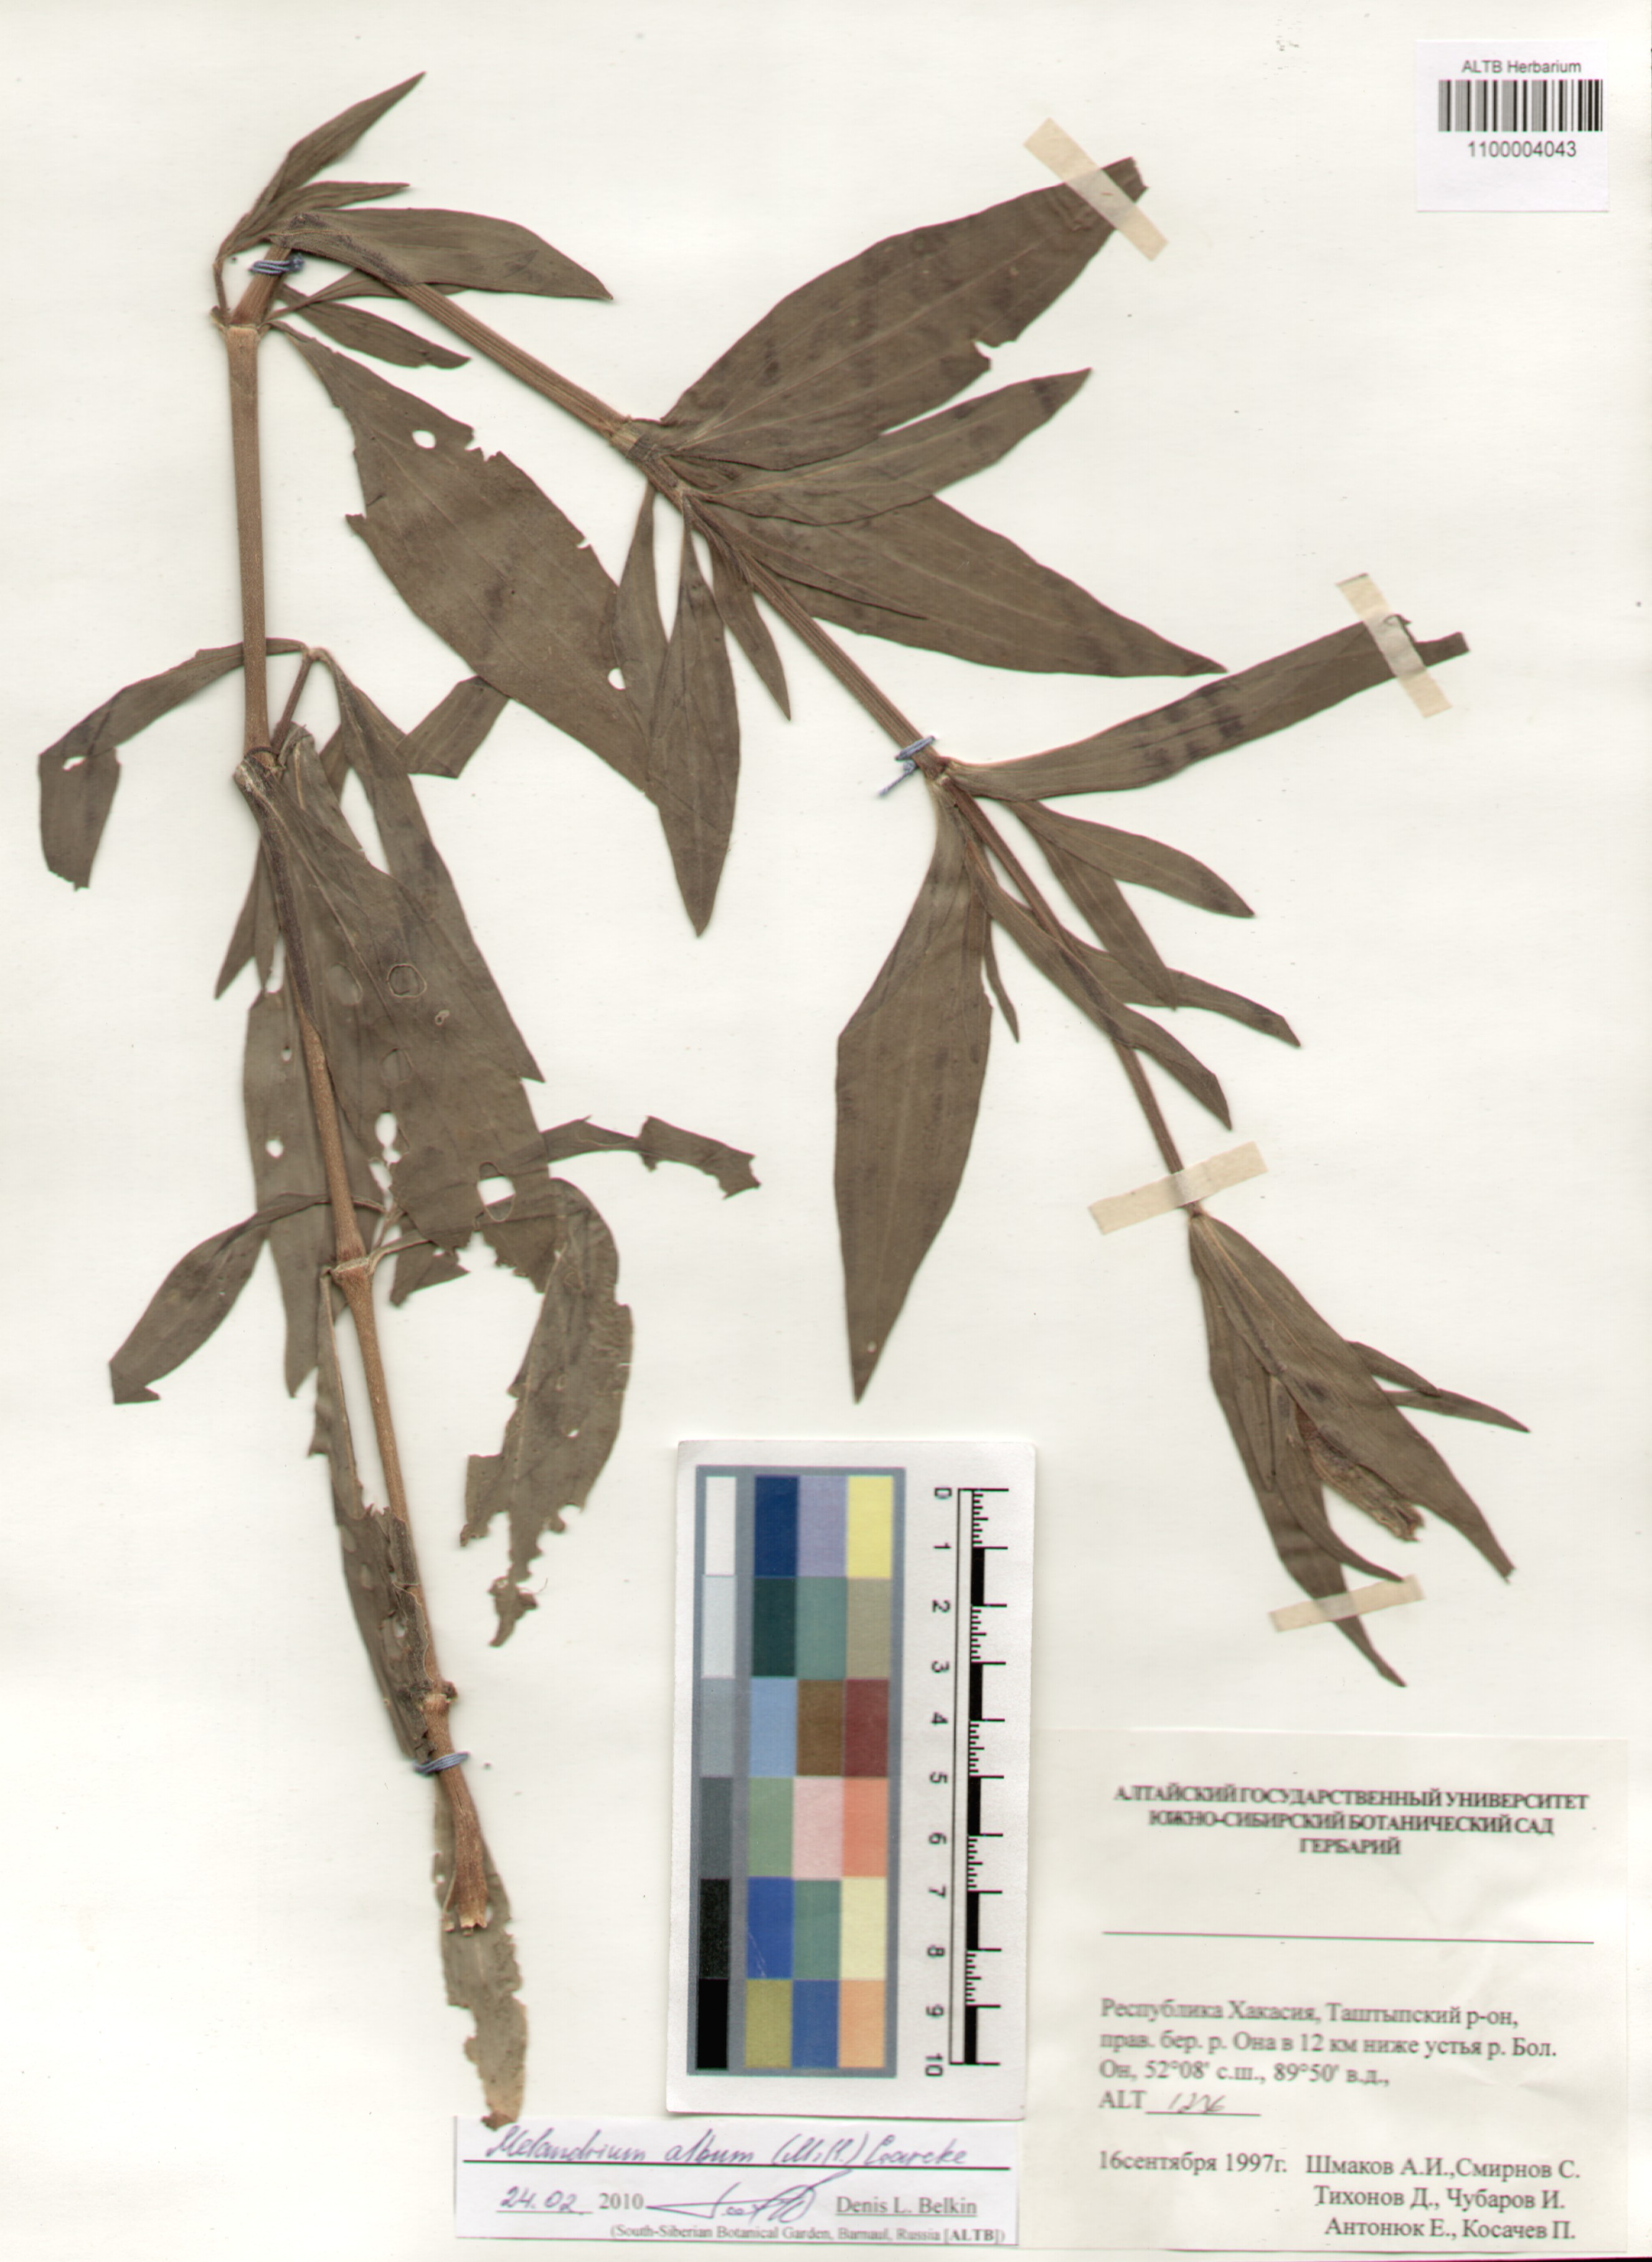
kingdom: Plantae
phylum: Tracheophyta
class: Magnoliopsida
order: Caryophyllales
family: Caryophyllaceae
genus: Silene
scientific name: Silene latifolia
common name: White campion
